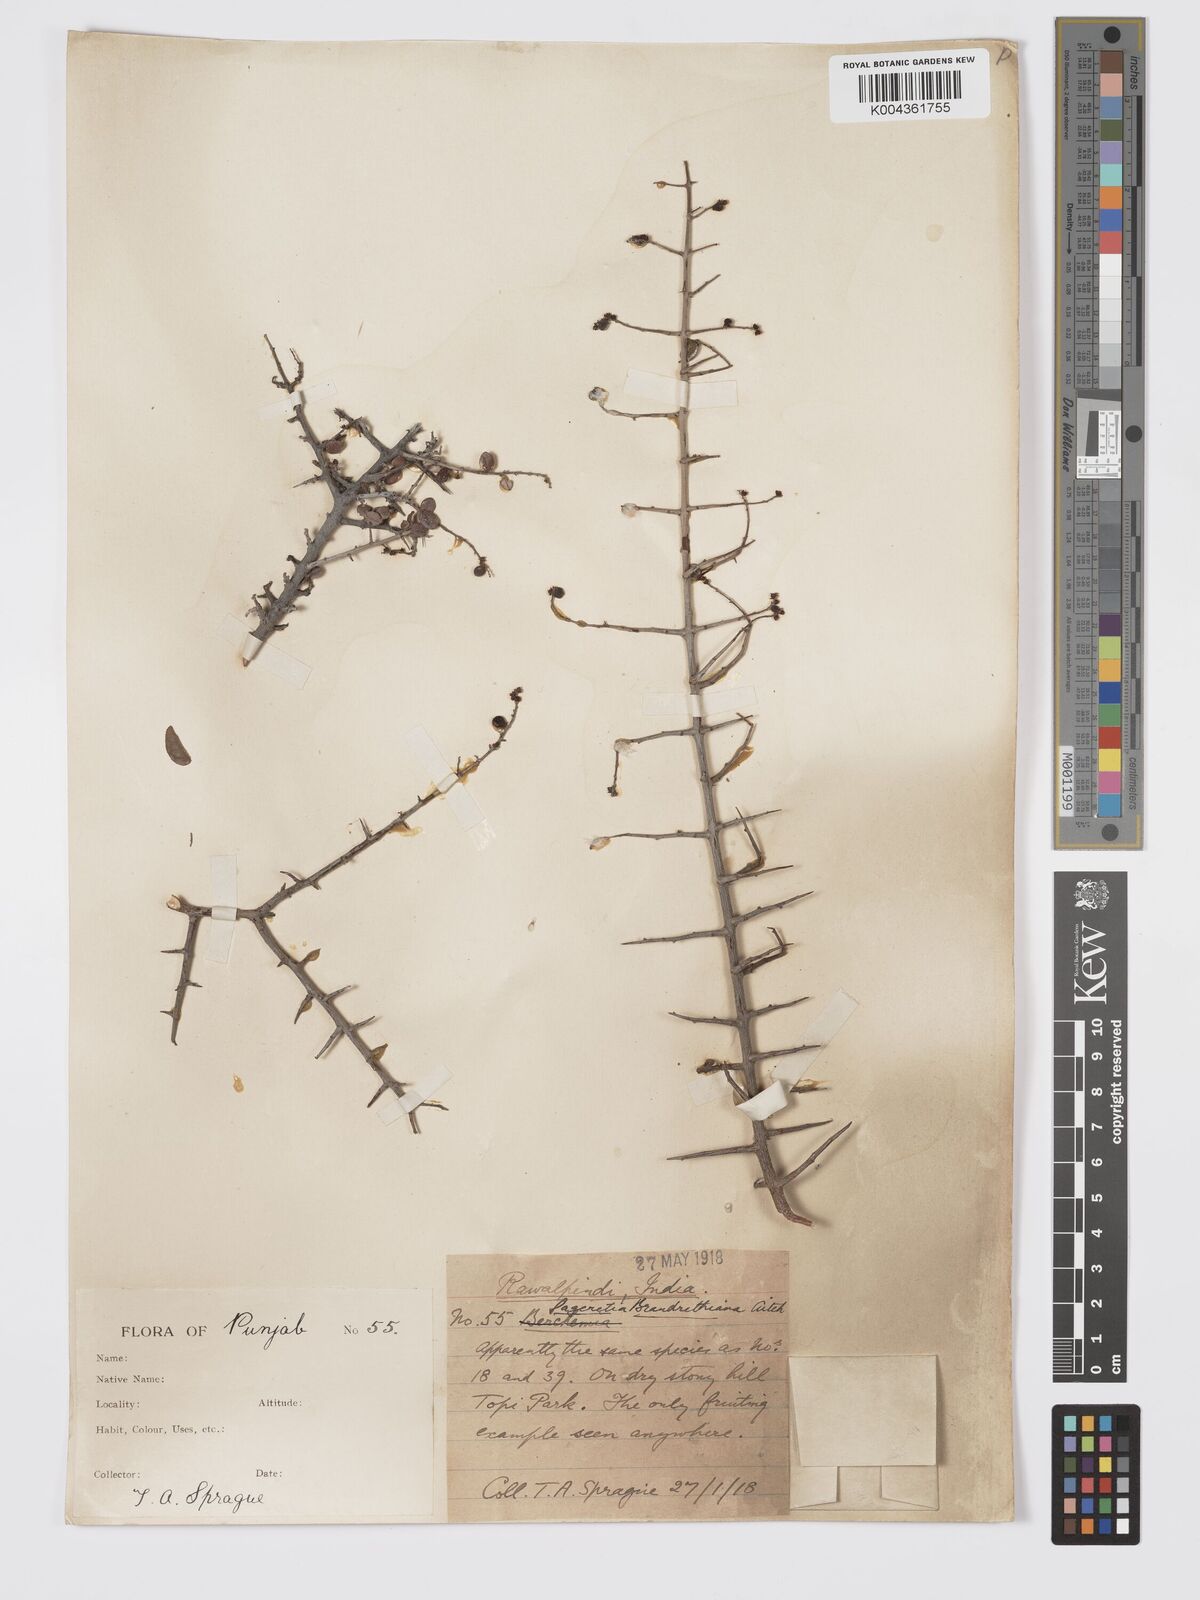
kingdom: Plantae
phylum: Tracheophyta
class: Magnoliopsida
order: Rosales
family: Rhamnaceae
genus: Sageretia
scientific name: Sageretia brandrethiana
